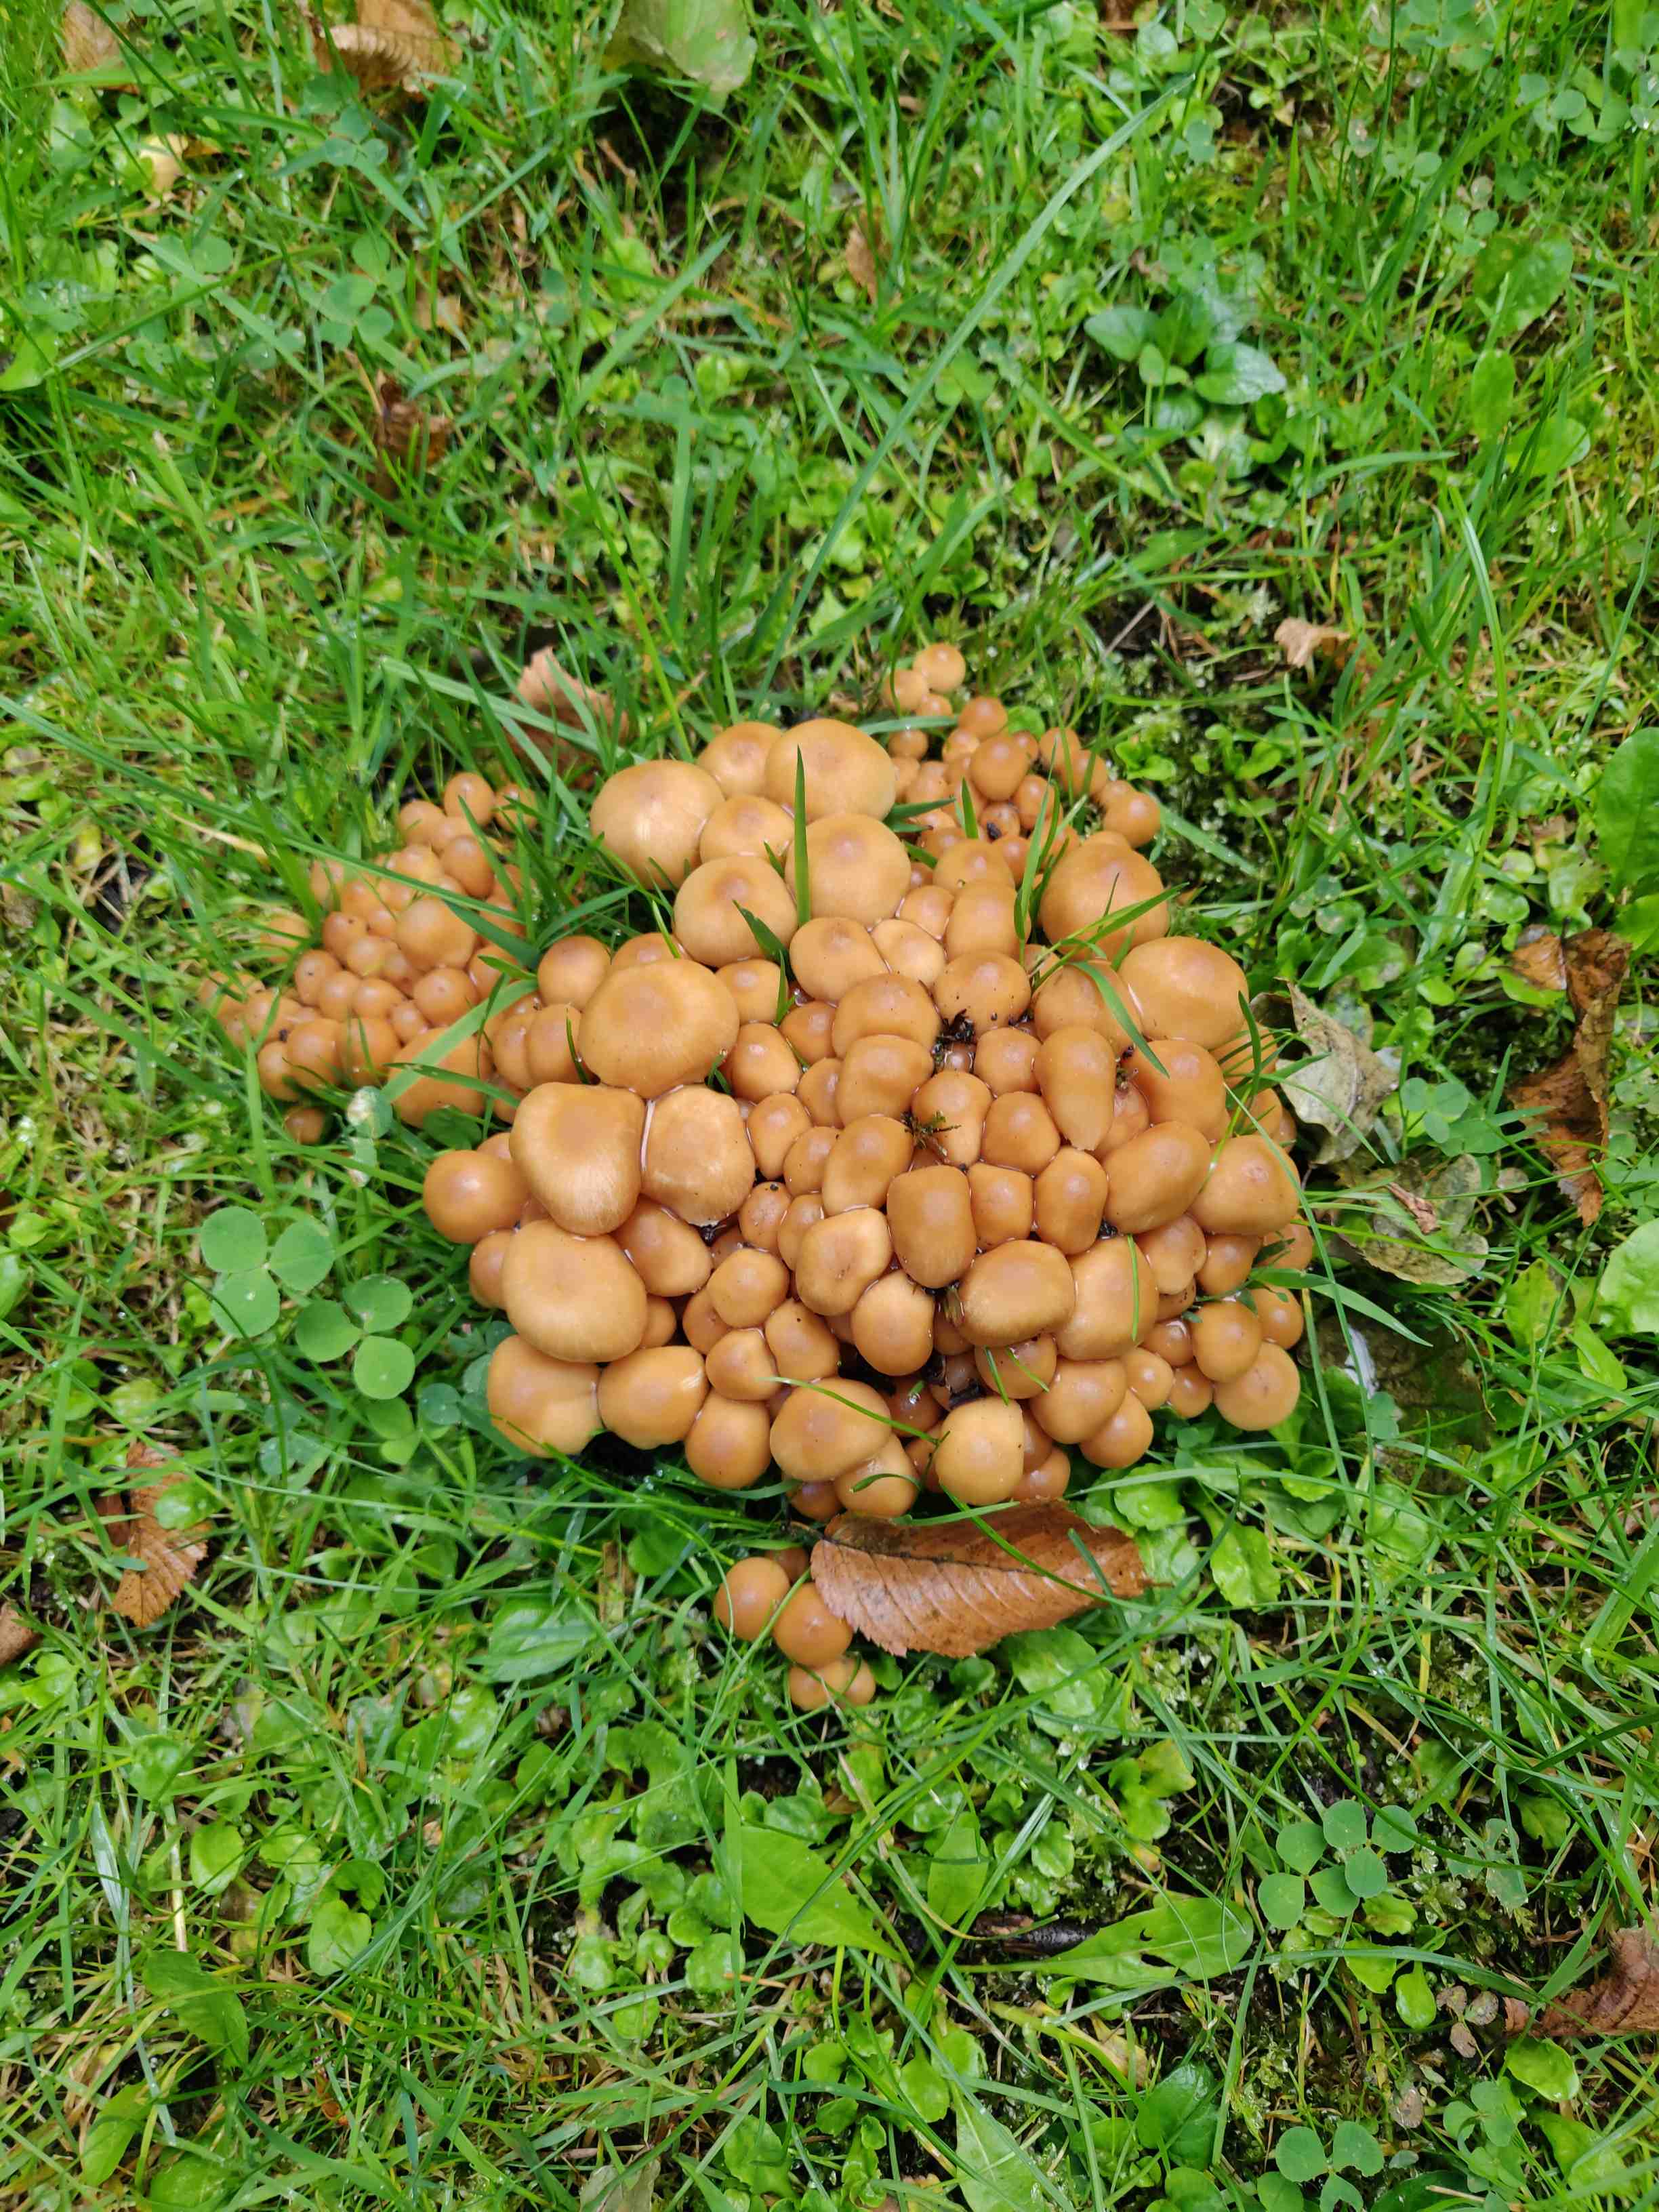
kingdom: Fungi
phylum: Basidiomycota
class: Agaricomycetes
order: Agaricales
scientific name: Agaricales
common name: champignonordenen
